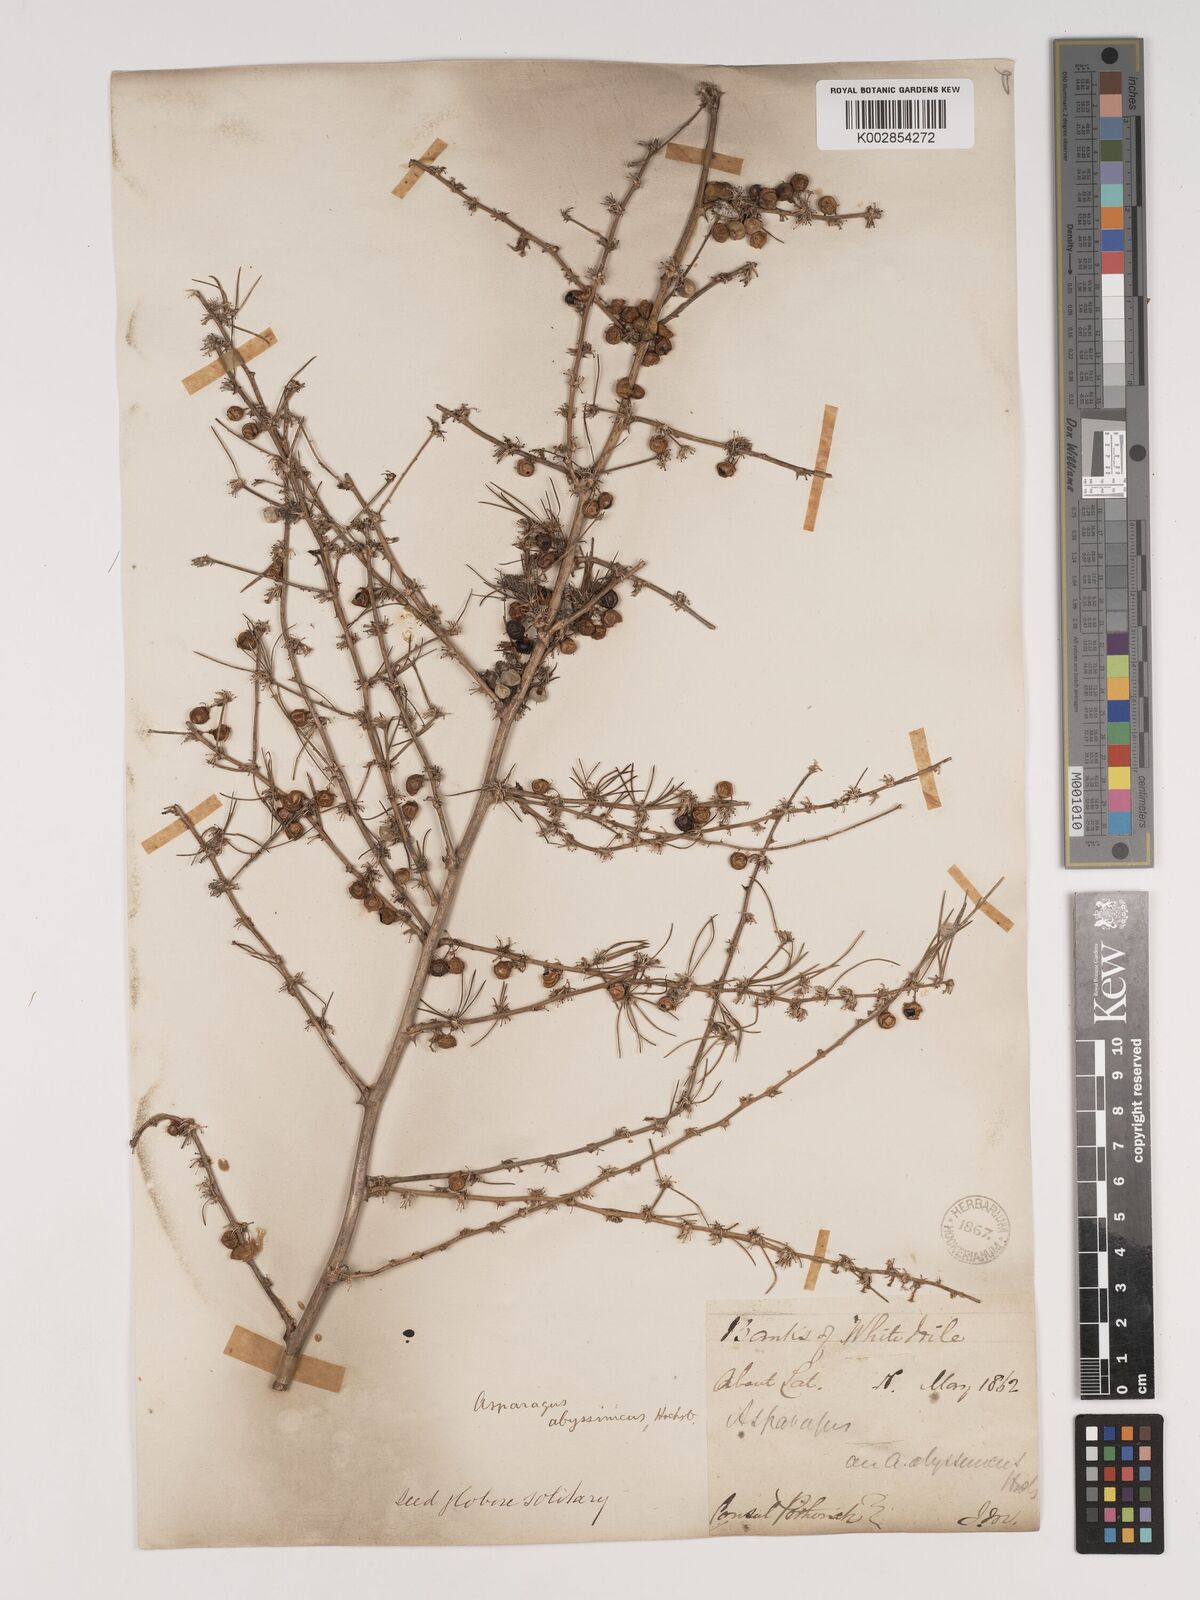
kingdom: Plantae
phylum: Tracheophyta
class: Liliopsida
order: Asparagales
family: Asparagaceae
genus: Asparagus
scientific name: Asparagus africanus
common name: Asparagus-fern
